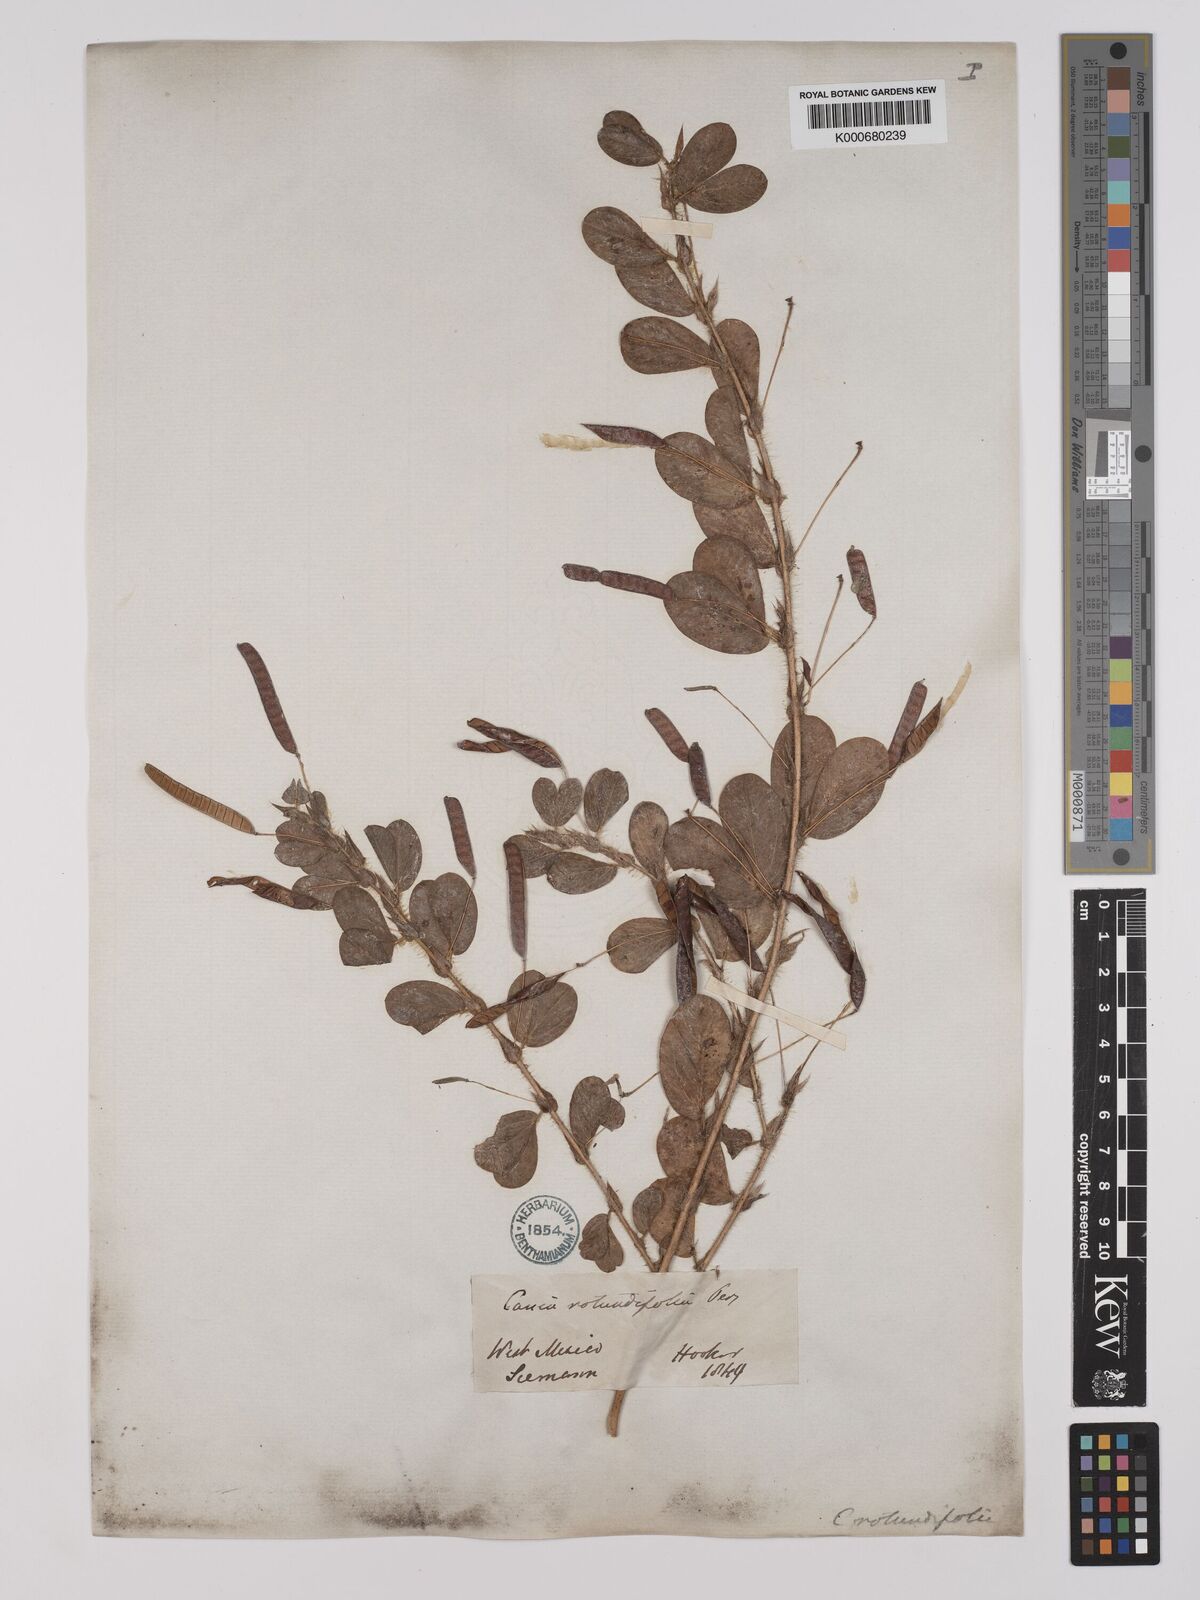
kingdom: Plantae
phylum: Tracheophyta
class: Magnoliopsida
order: Fabales
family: Fabaceae
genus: Chamaecrista
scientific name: Chamaecrista rotundifolia
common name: Round-leaf cassia
